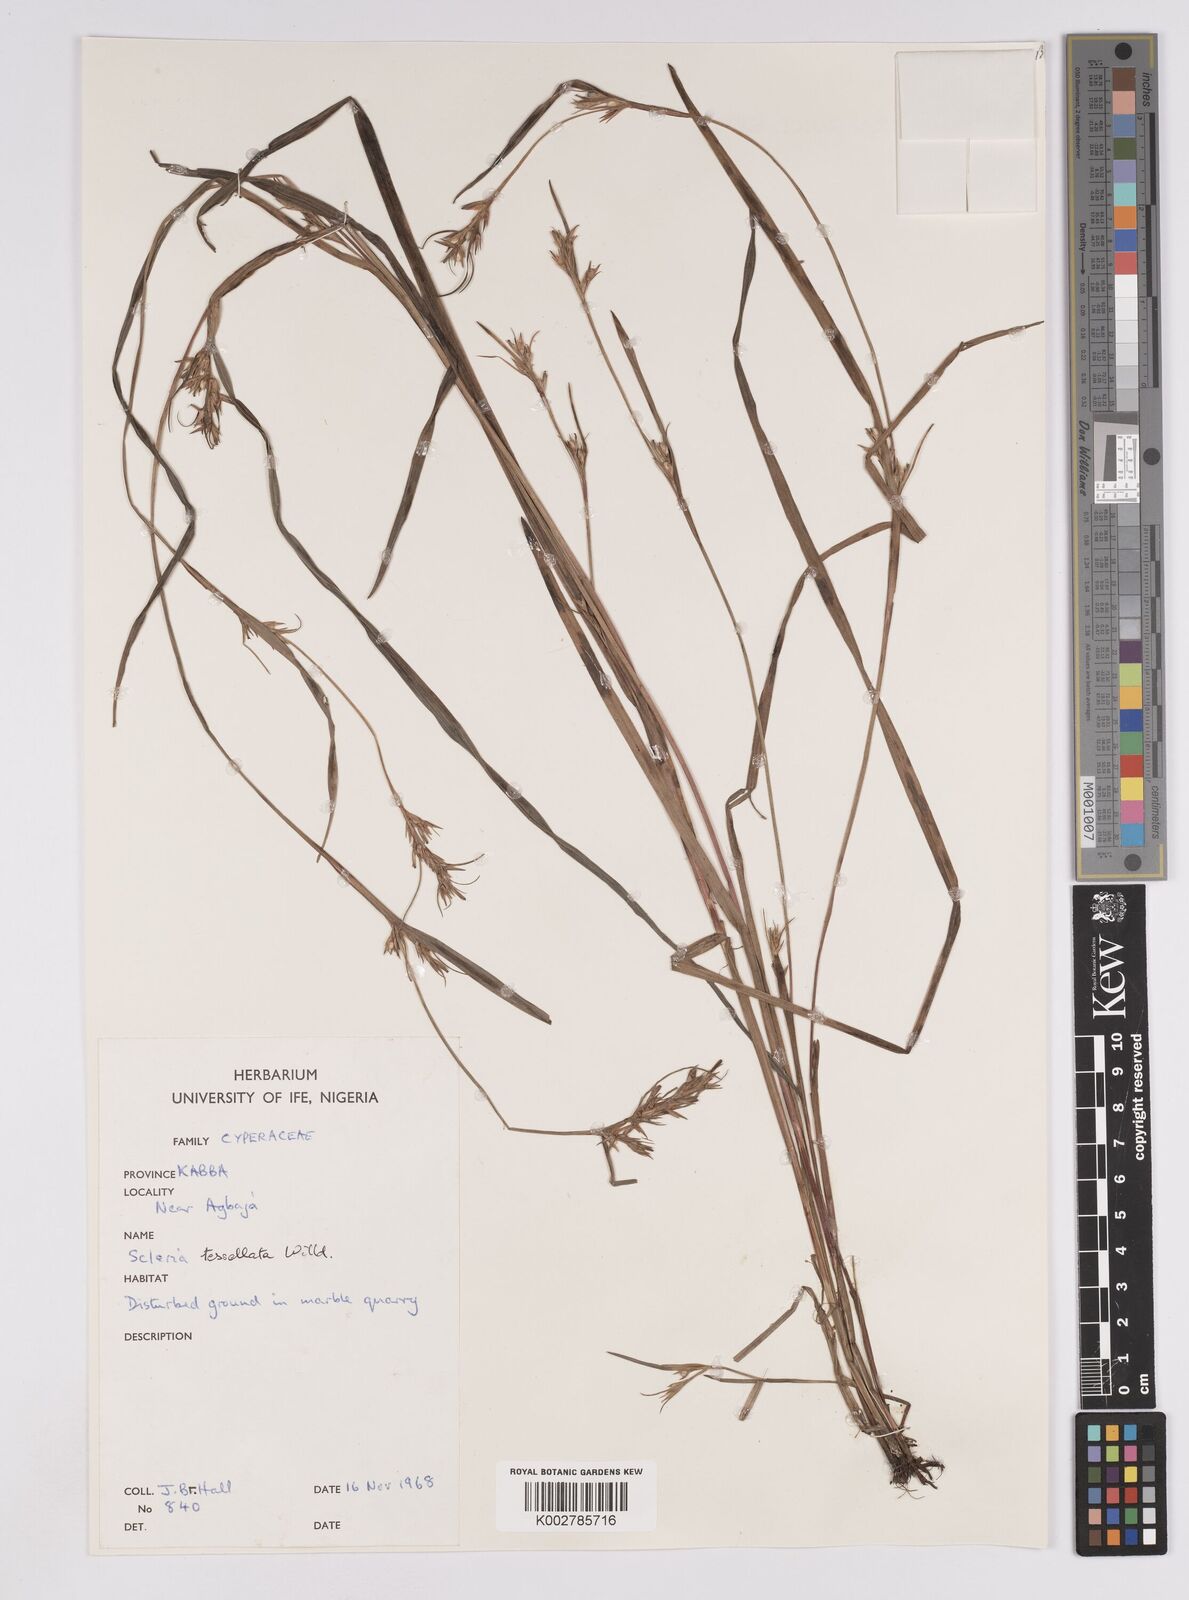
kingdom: Plantae
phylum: Tracheophyta
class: Liliopsida
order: Poales
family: Cyperaceae
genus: Scleria
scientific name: Scleria tessellata
